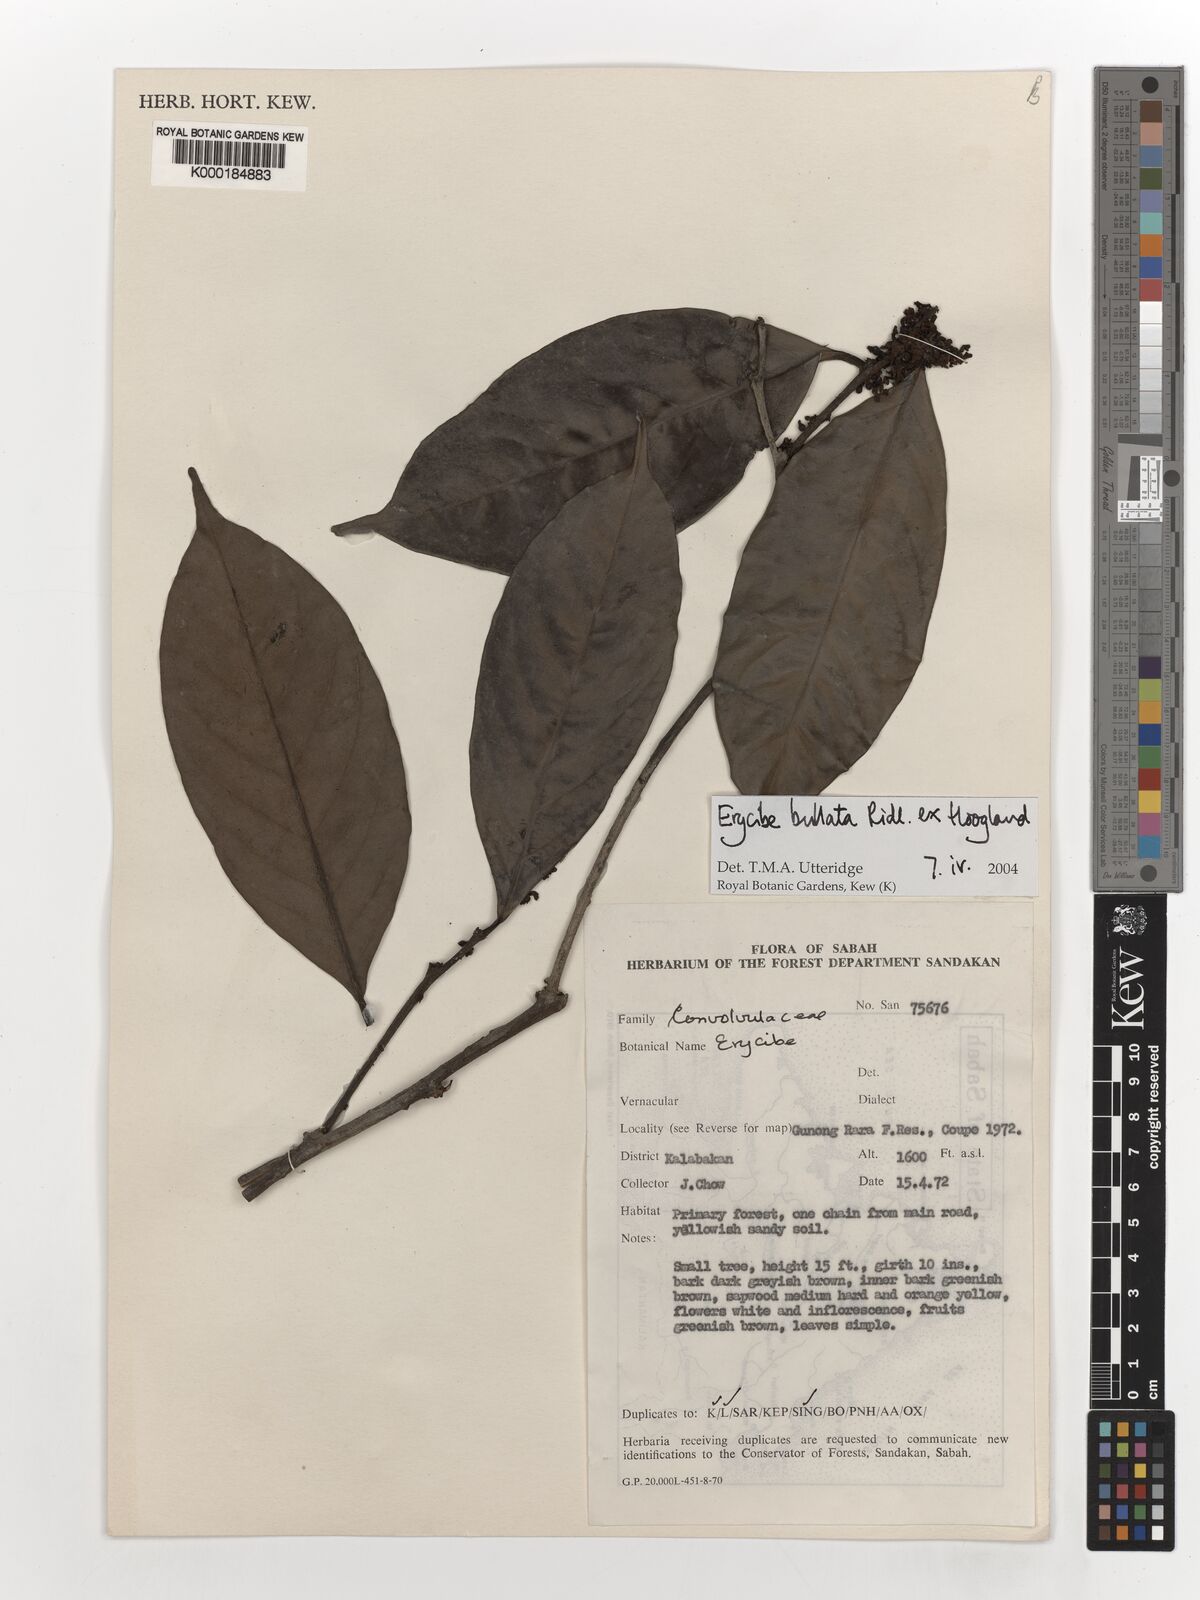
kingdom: Plantae
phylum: Tracheophyta
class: Magnoliopsida
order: Solanales
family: Convolvulaceae
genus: Erycibe
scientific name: Erycibe bullata
